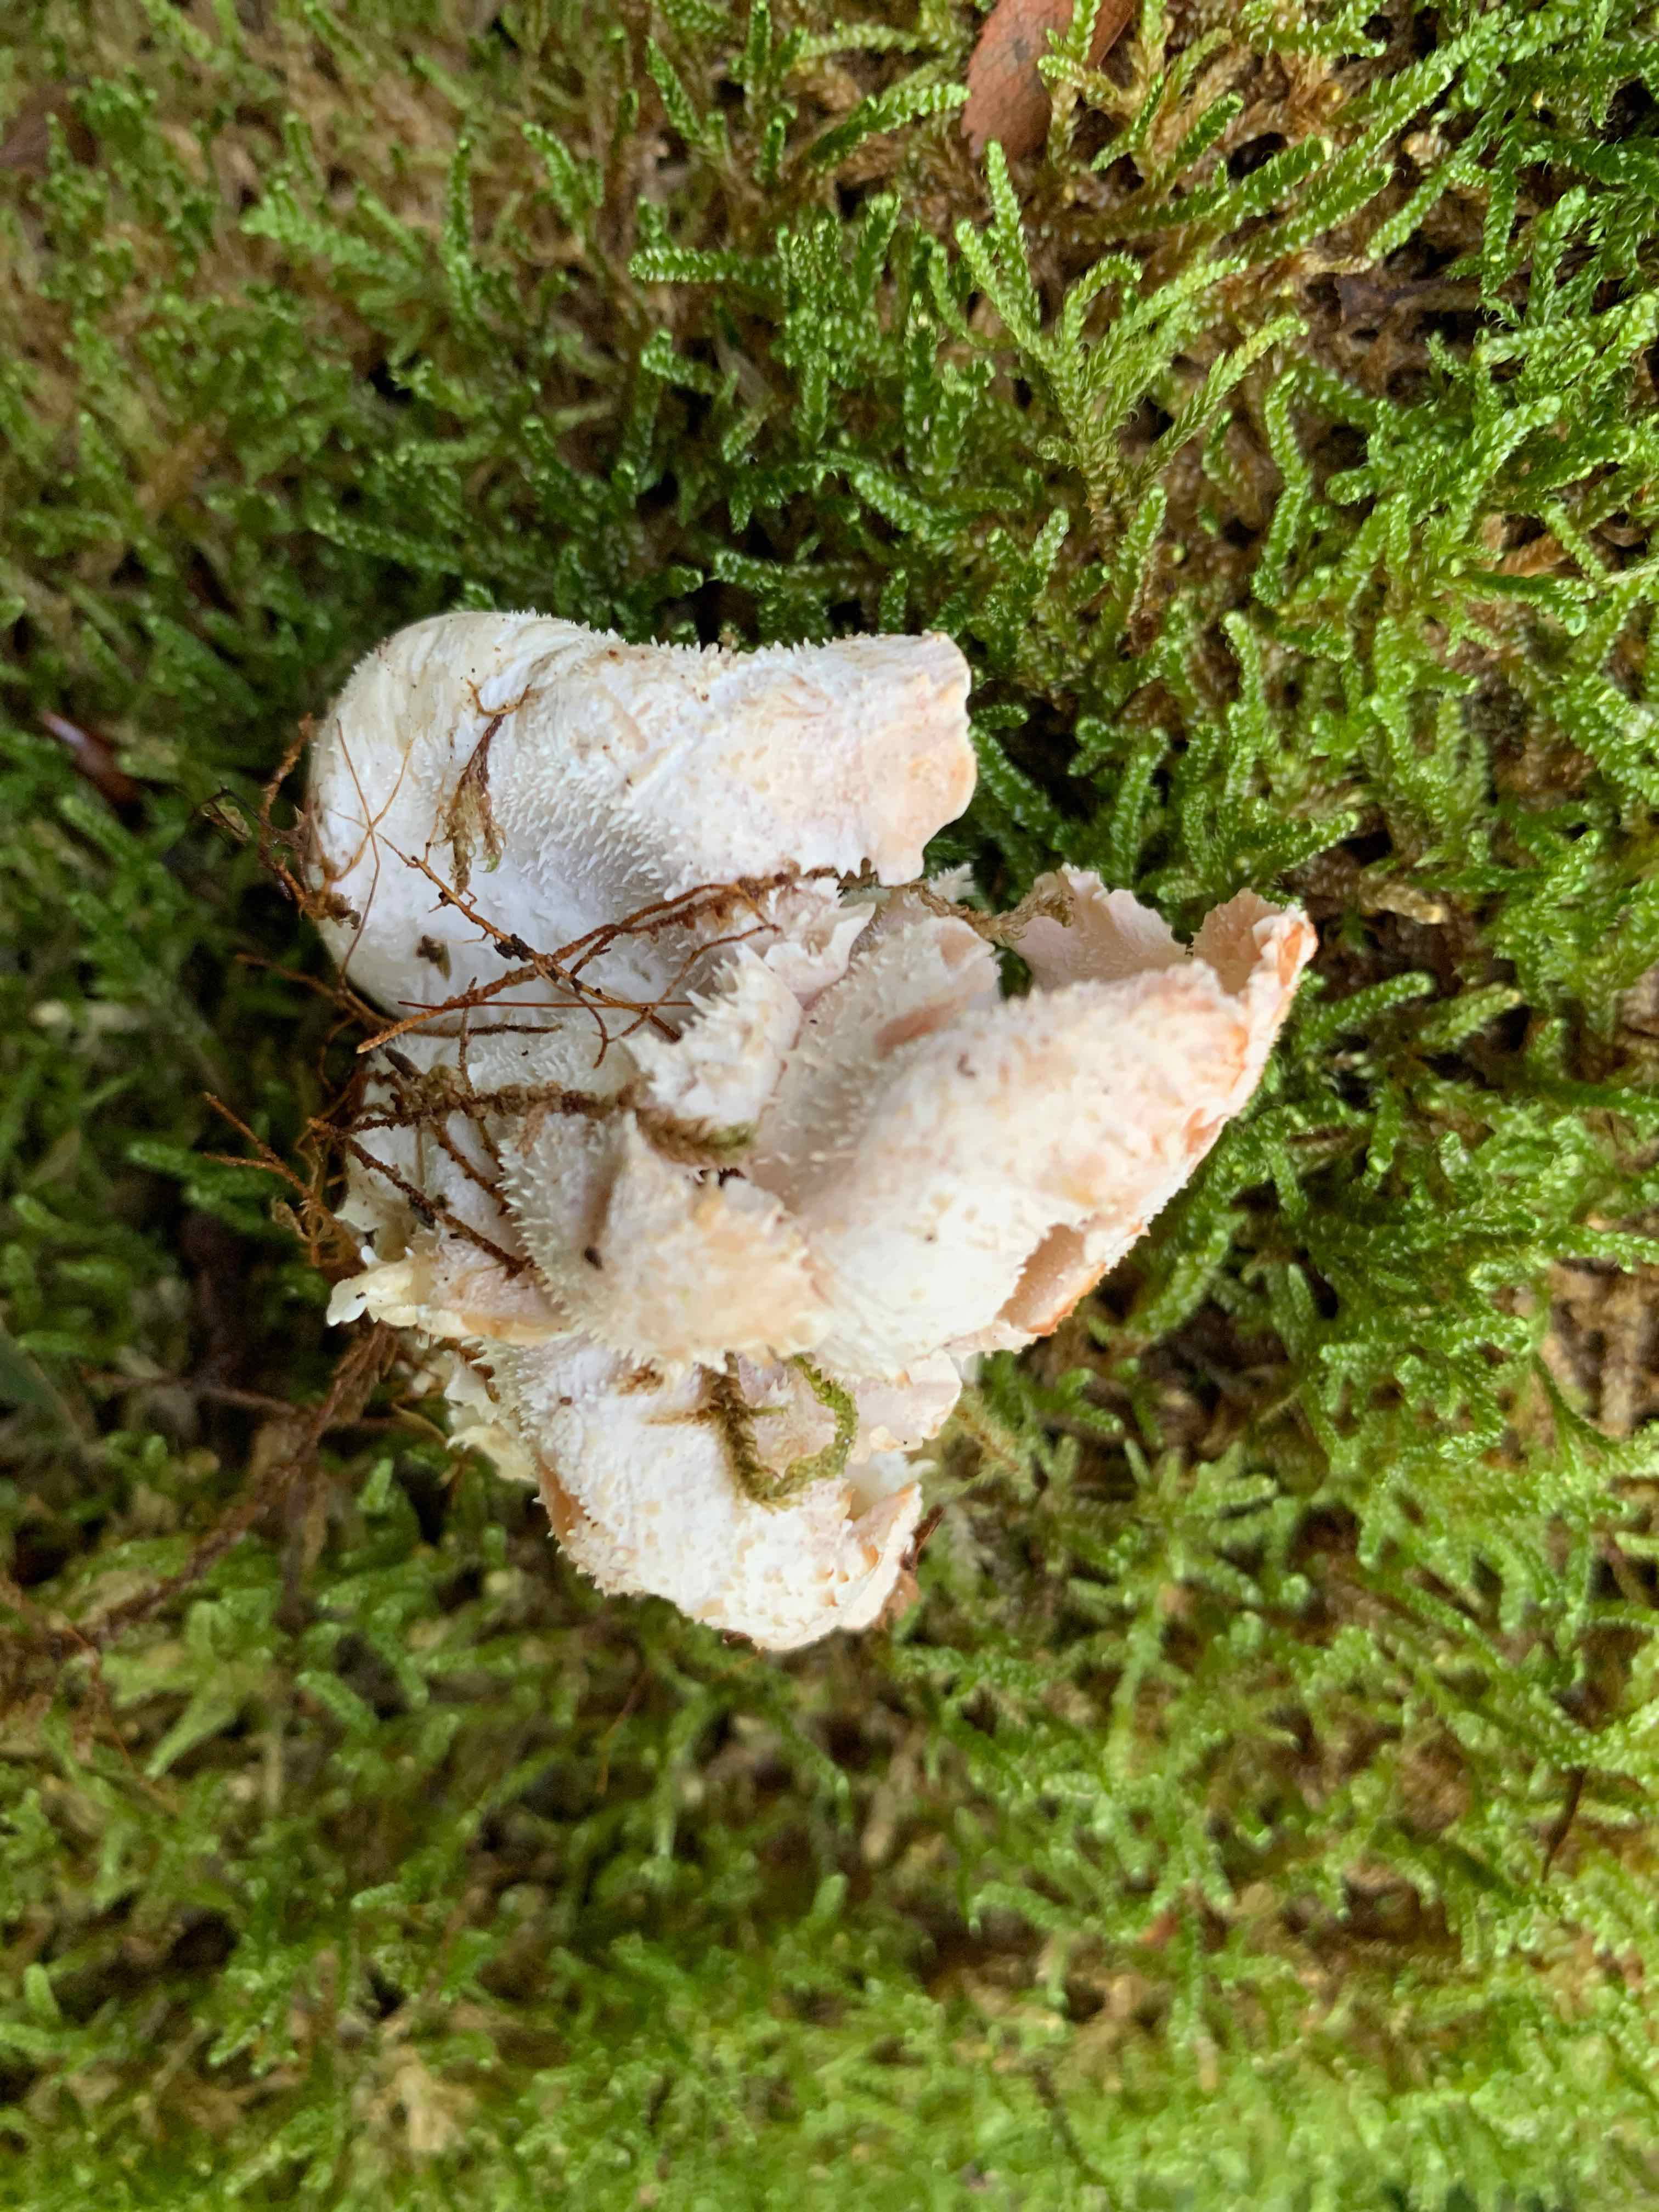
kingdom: Fungi
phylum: Basidiomycota
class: Agaricomycetes
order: Russulales
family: Hericiaceae
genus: Hericium
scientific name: Hericium cirrhatum
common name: børstepigsvamp
